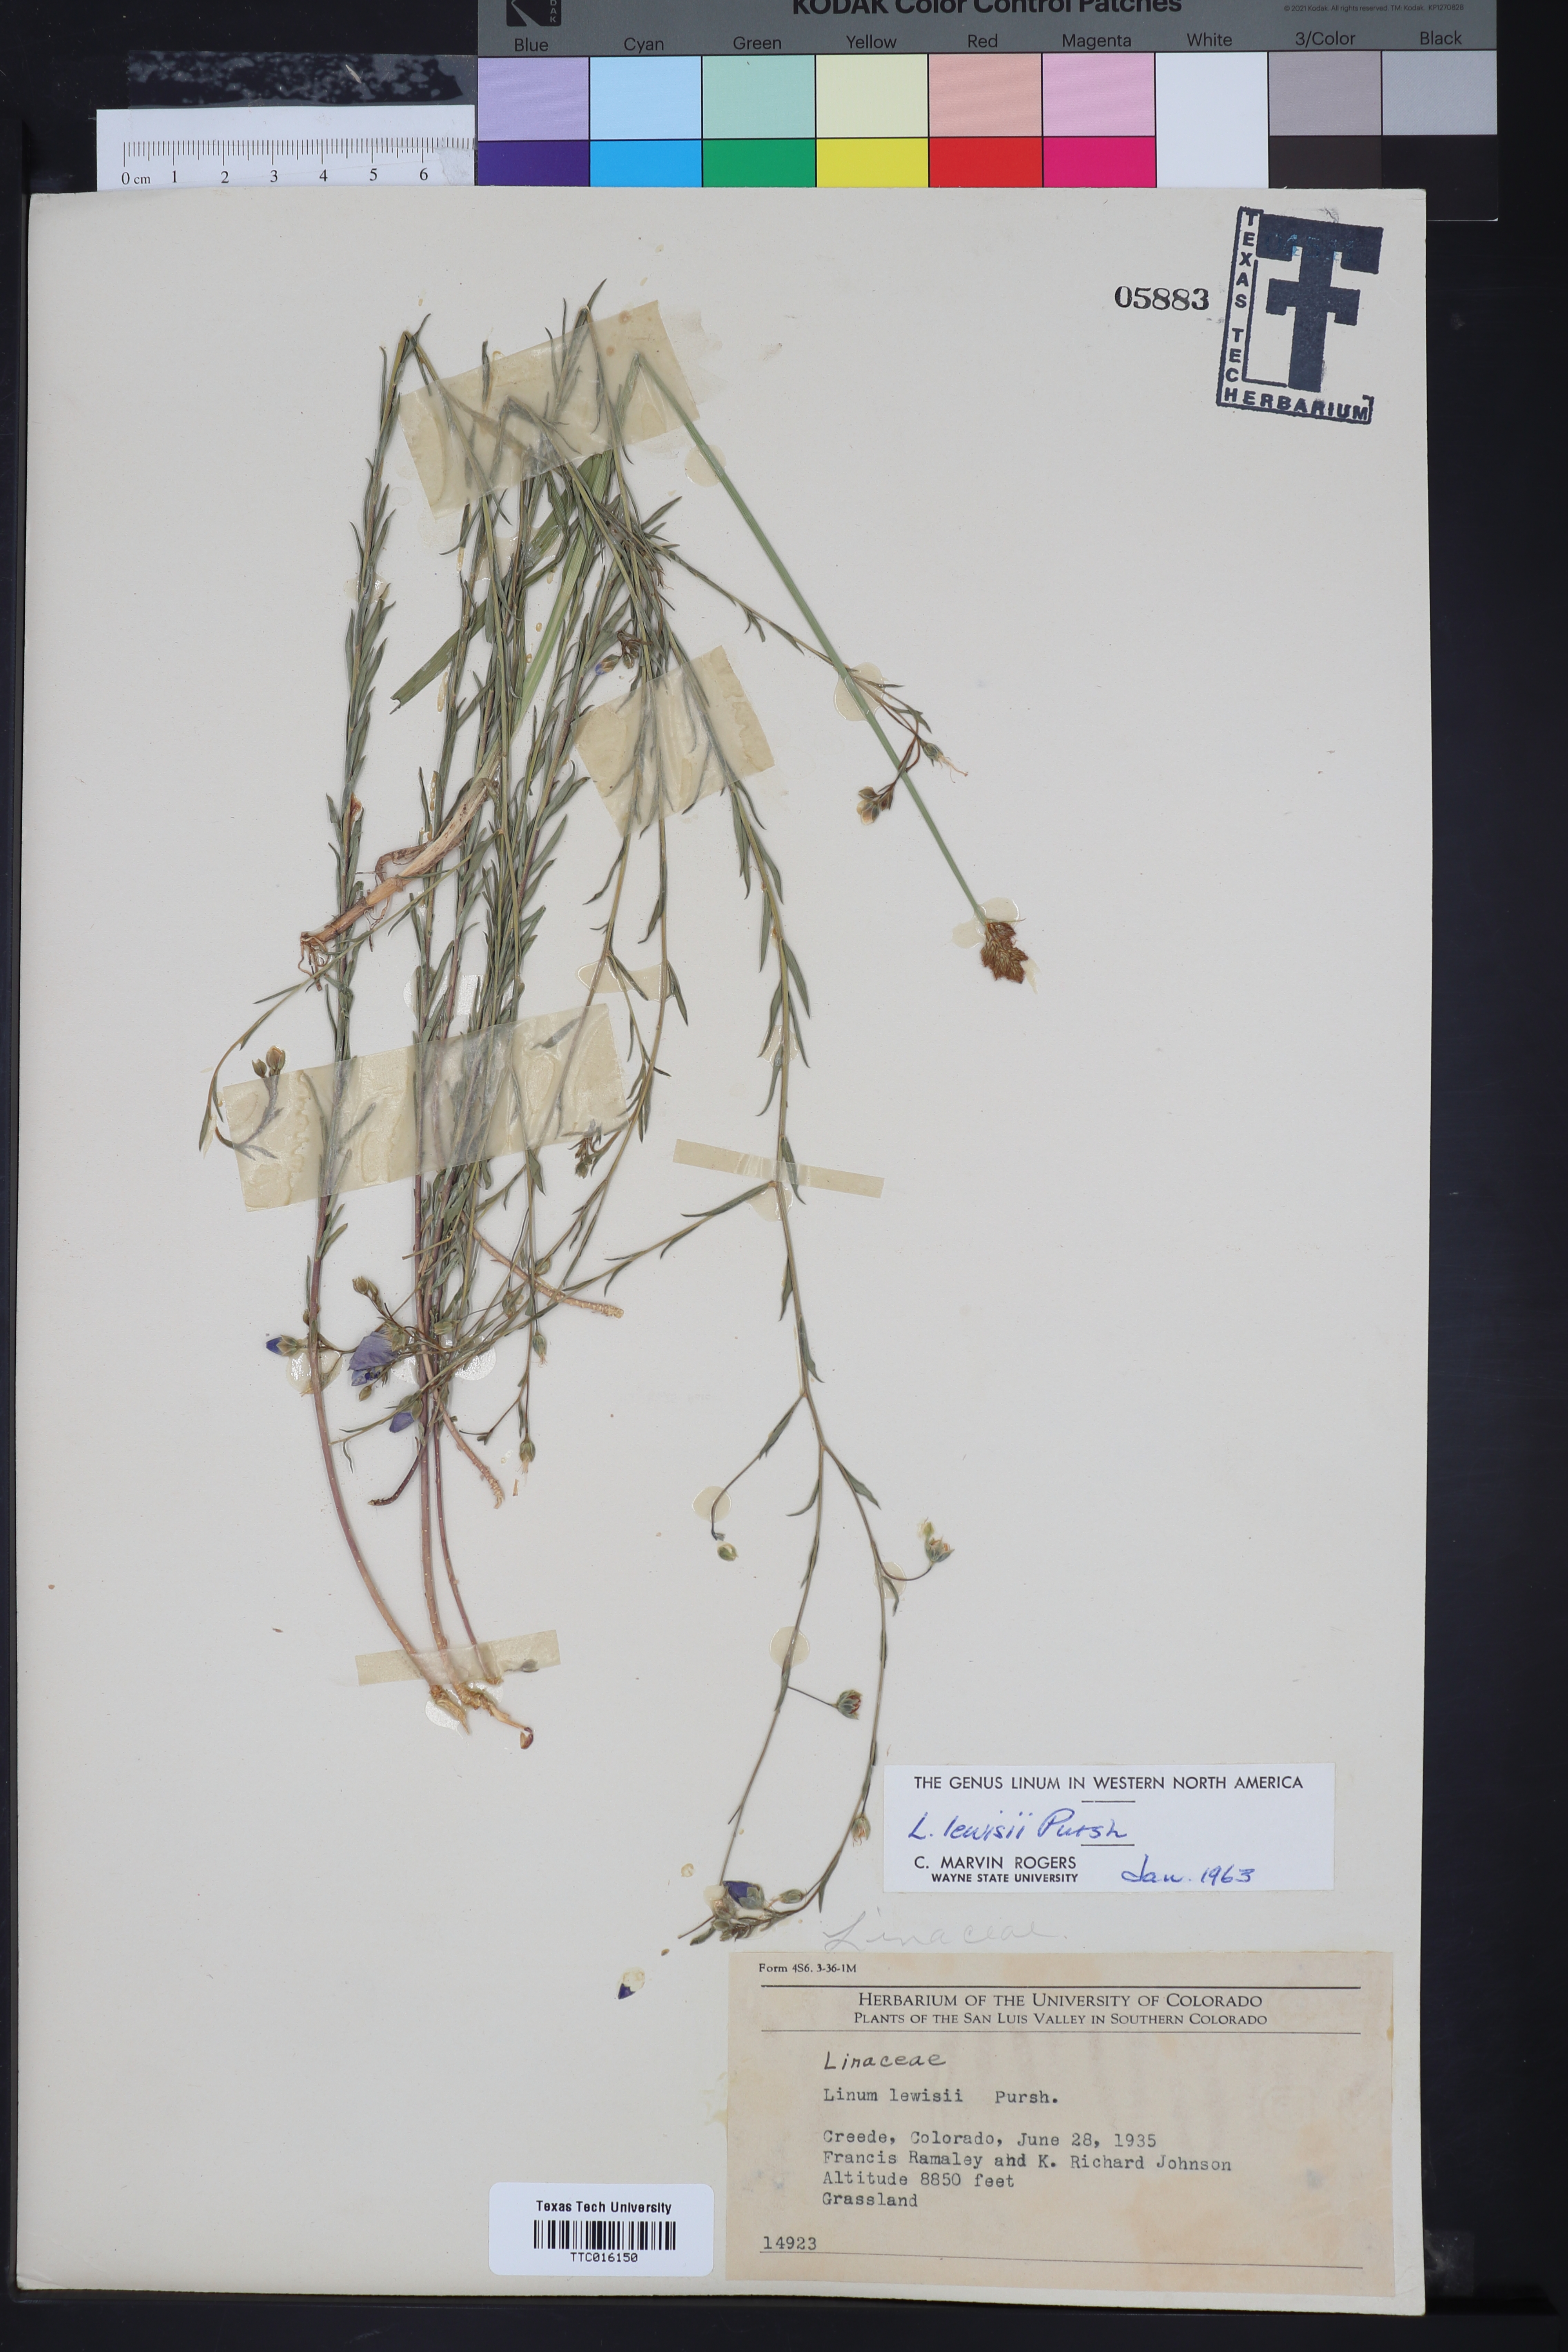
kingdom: Plantae
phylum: Tracheophyta
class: Magnoliopsida
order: Malpighiales
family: Linaceae
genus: Linum
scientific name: Linum lewisii
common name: Prairie flax
